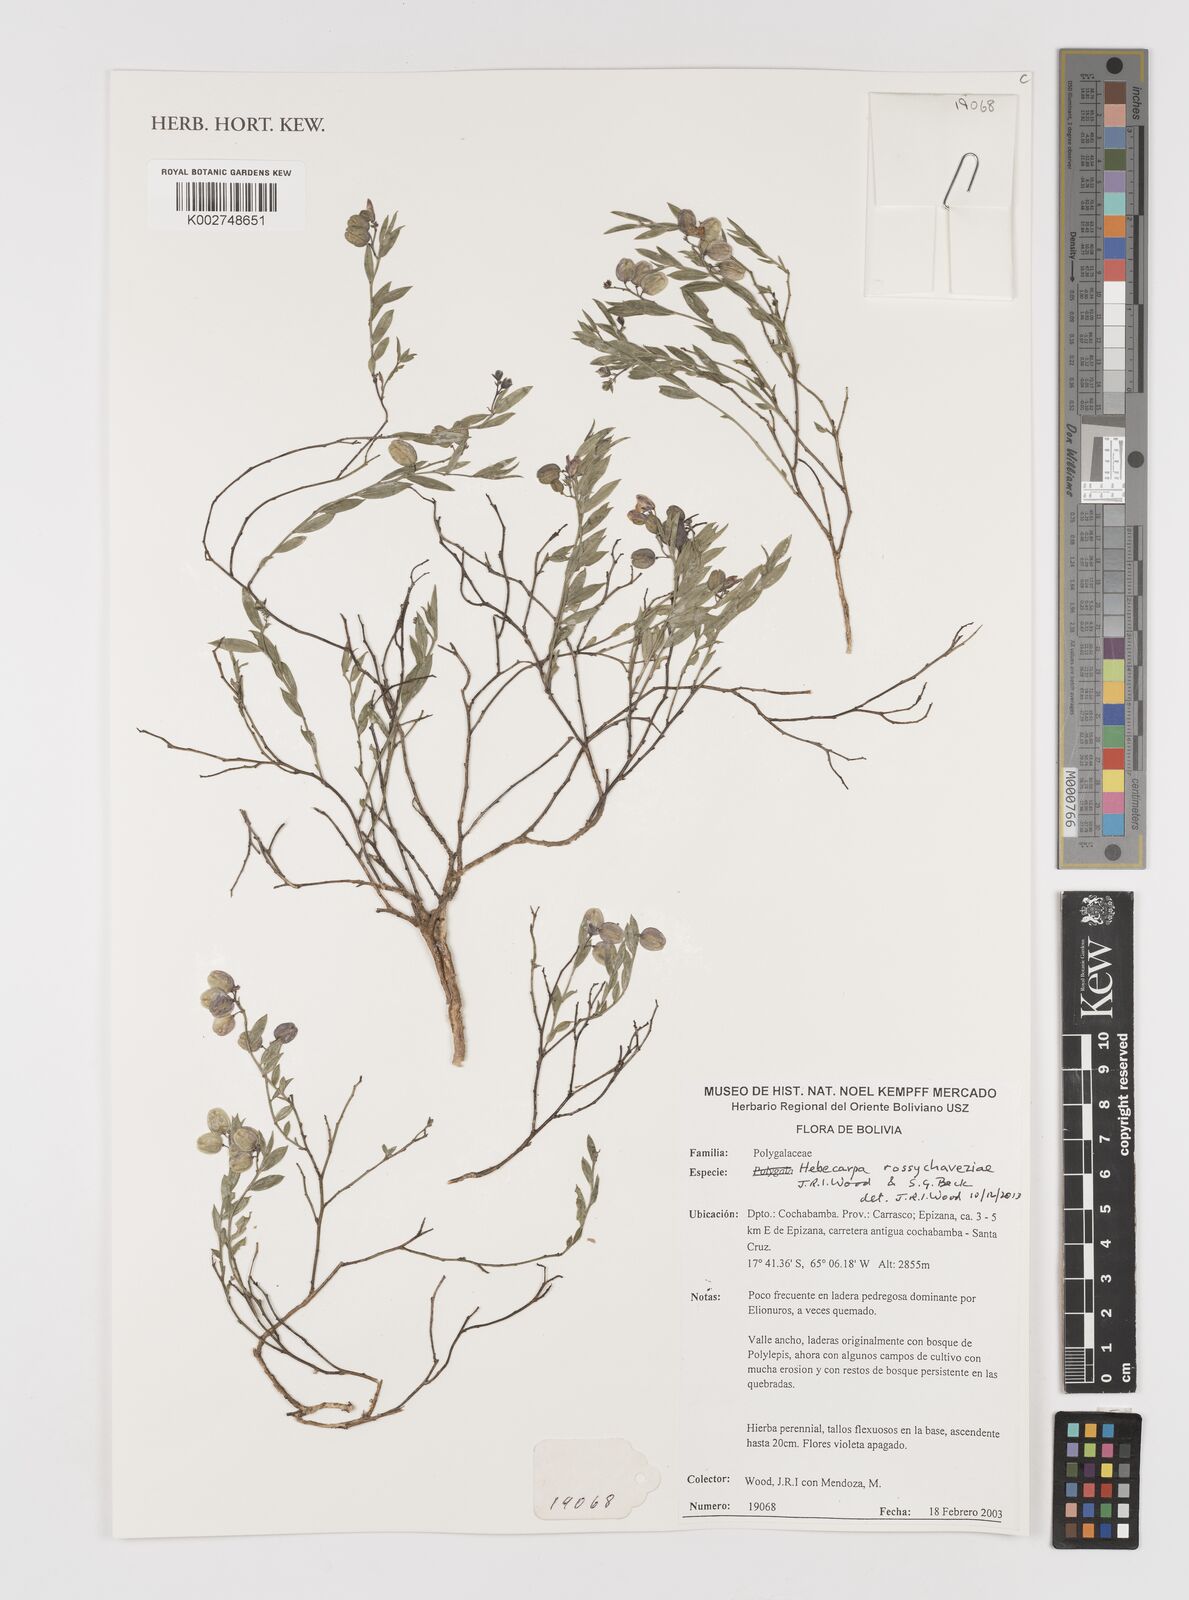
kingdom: Plantae
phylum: Tracheophyta
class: Magnoliopsida
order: Fabales
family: Polygalaceae
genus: Hebecarpa
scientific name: Hebecarpa rossychaveziae
